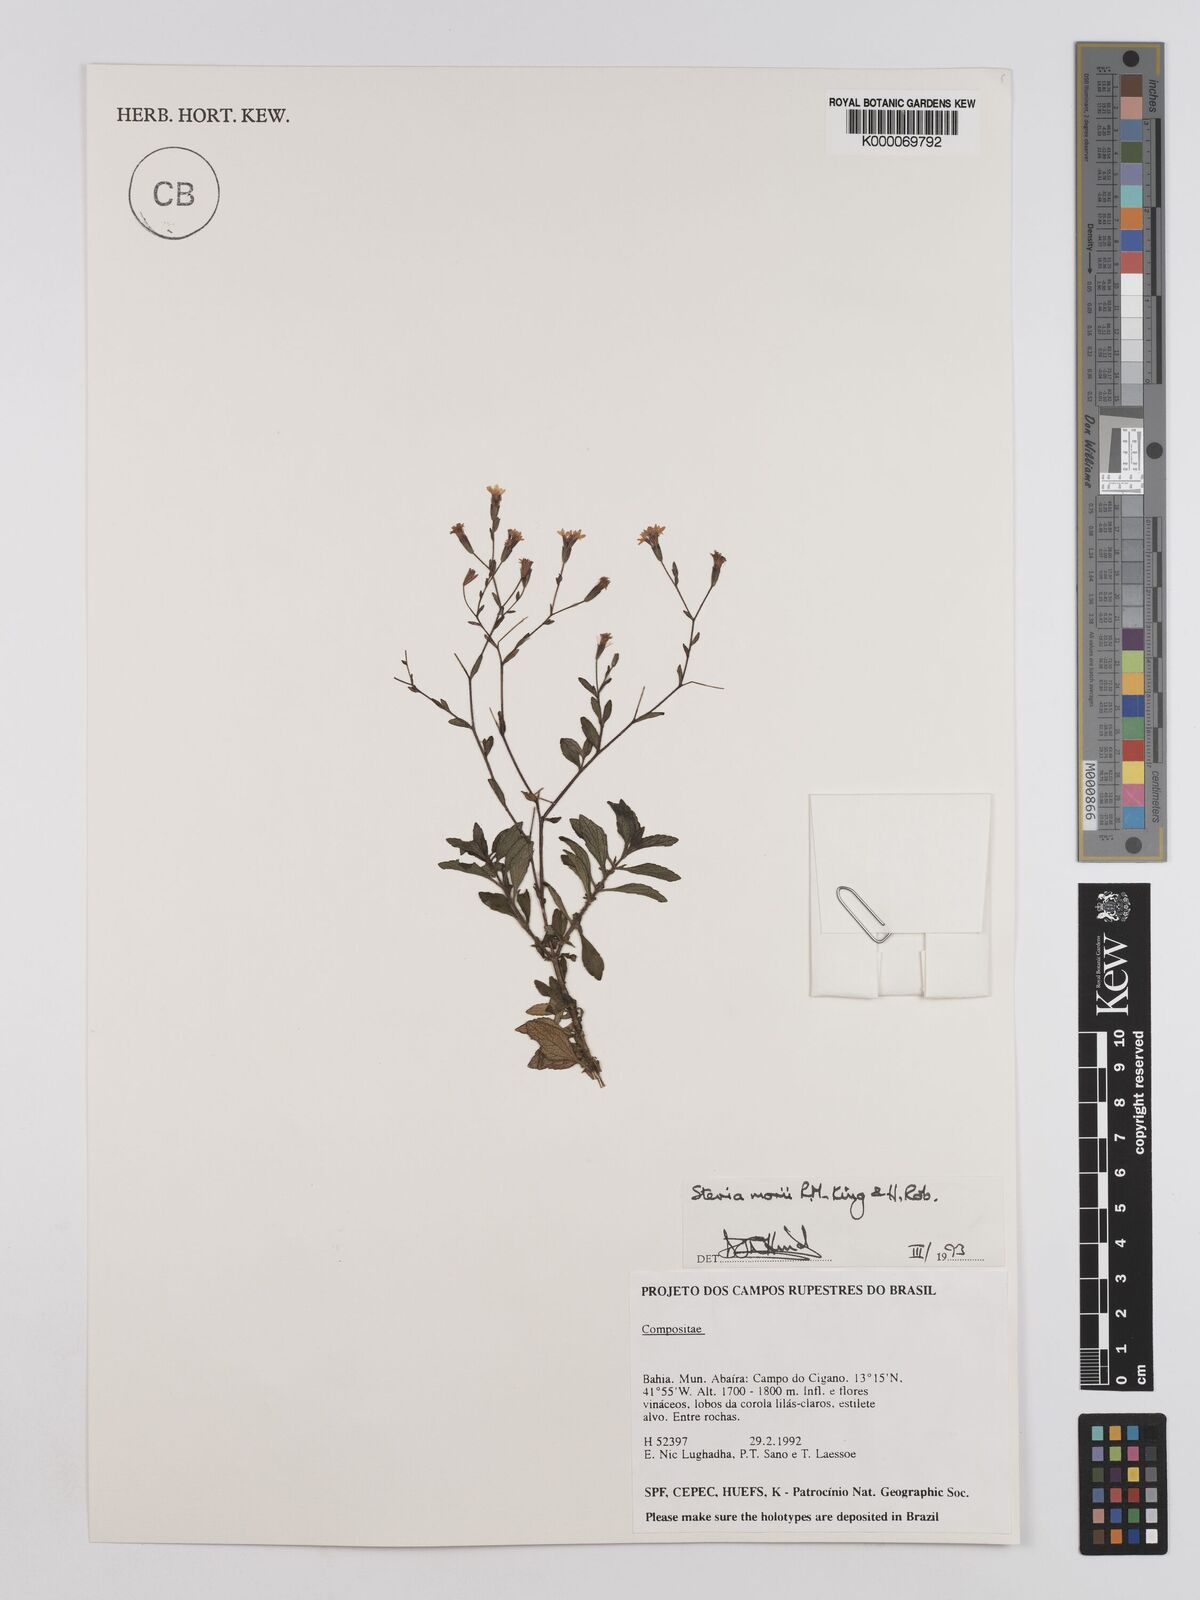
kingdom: Plantae
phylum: Tracheophyta
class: Magnoliopsida
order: Asterales
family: Asteraceae
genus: Stevia
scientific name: Stevia morii
